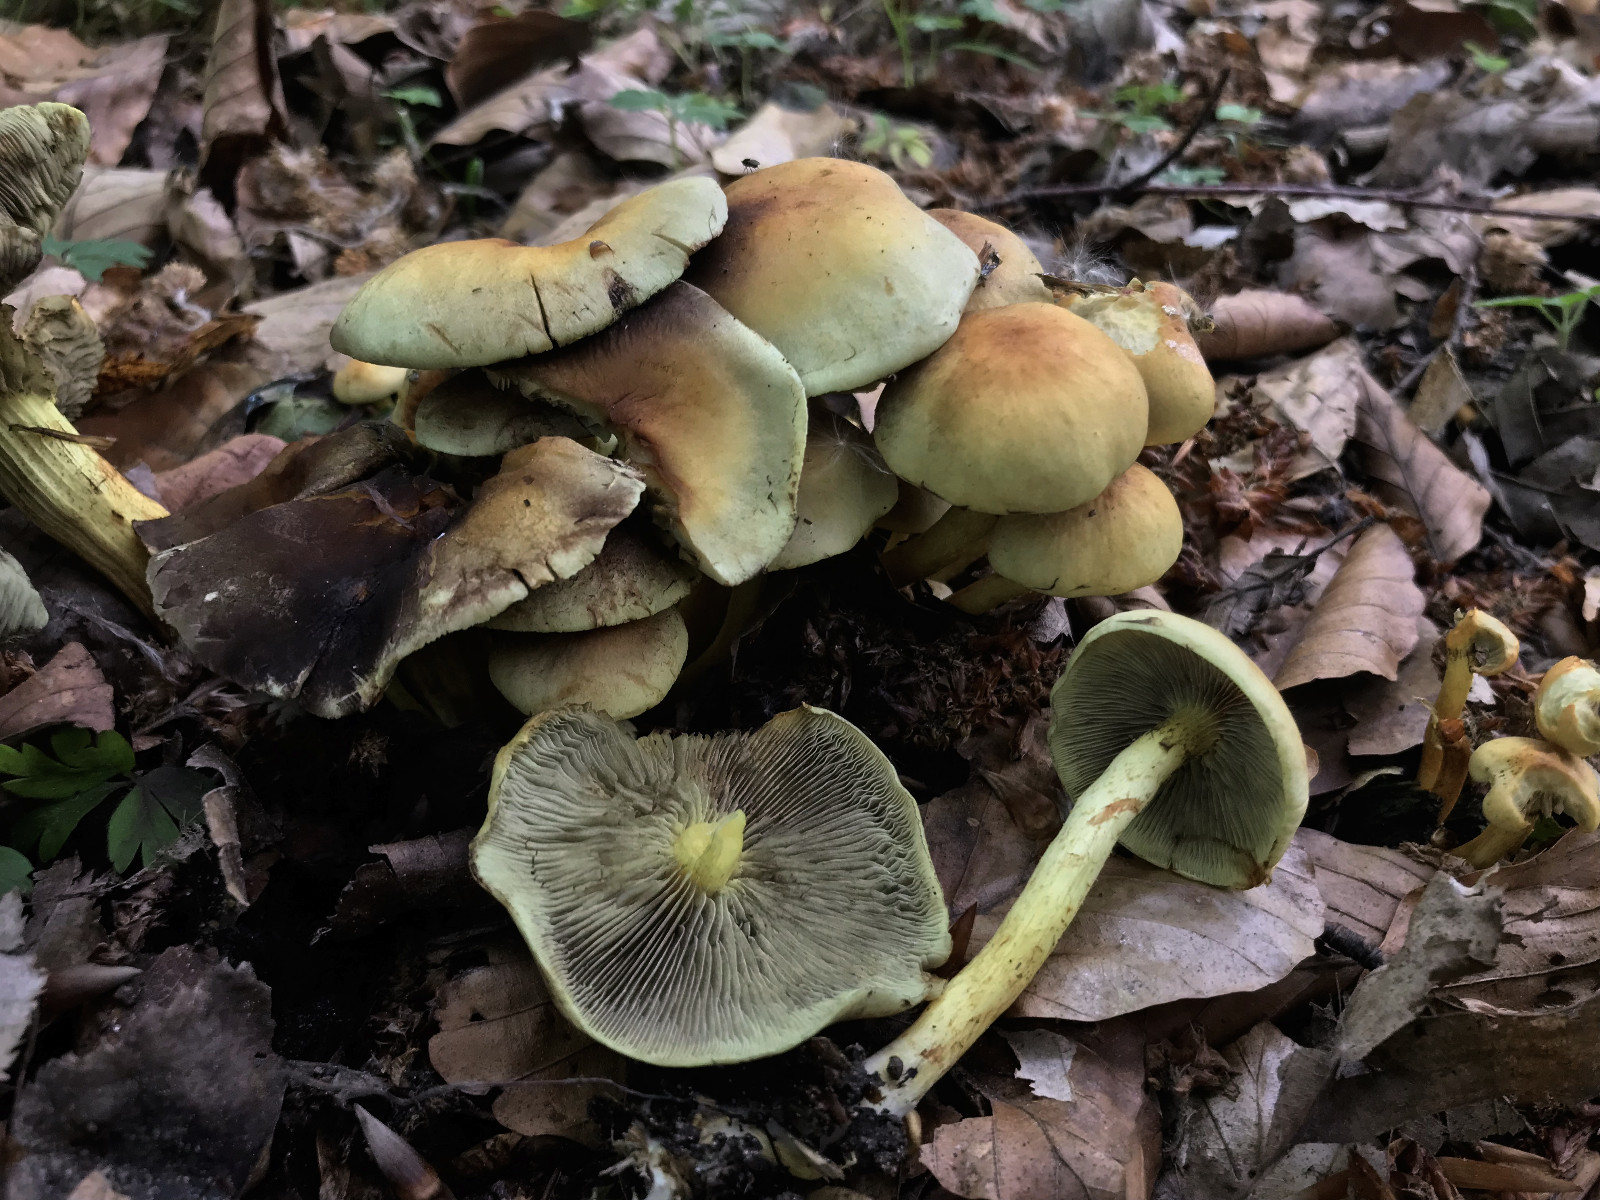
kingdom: Fungi
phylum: Basidiomycota
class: Agaricomycetes
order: Agaricales
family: Strophariaceae
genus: Hypholoma
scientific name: Hypholoma fasciculare
